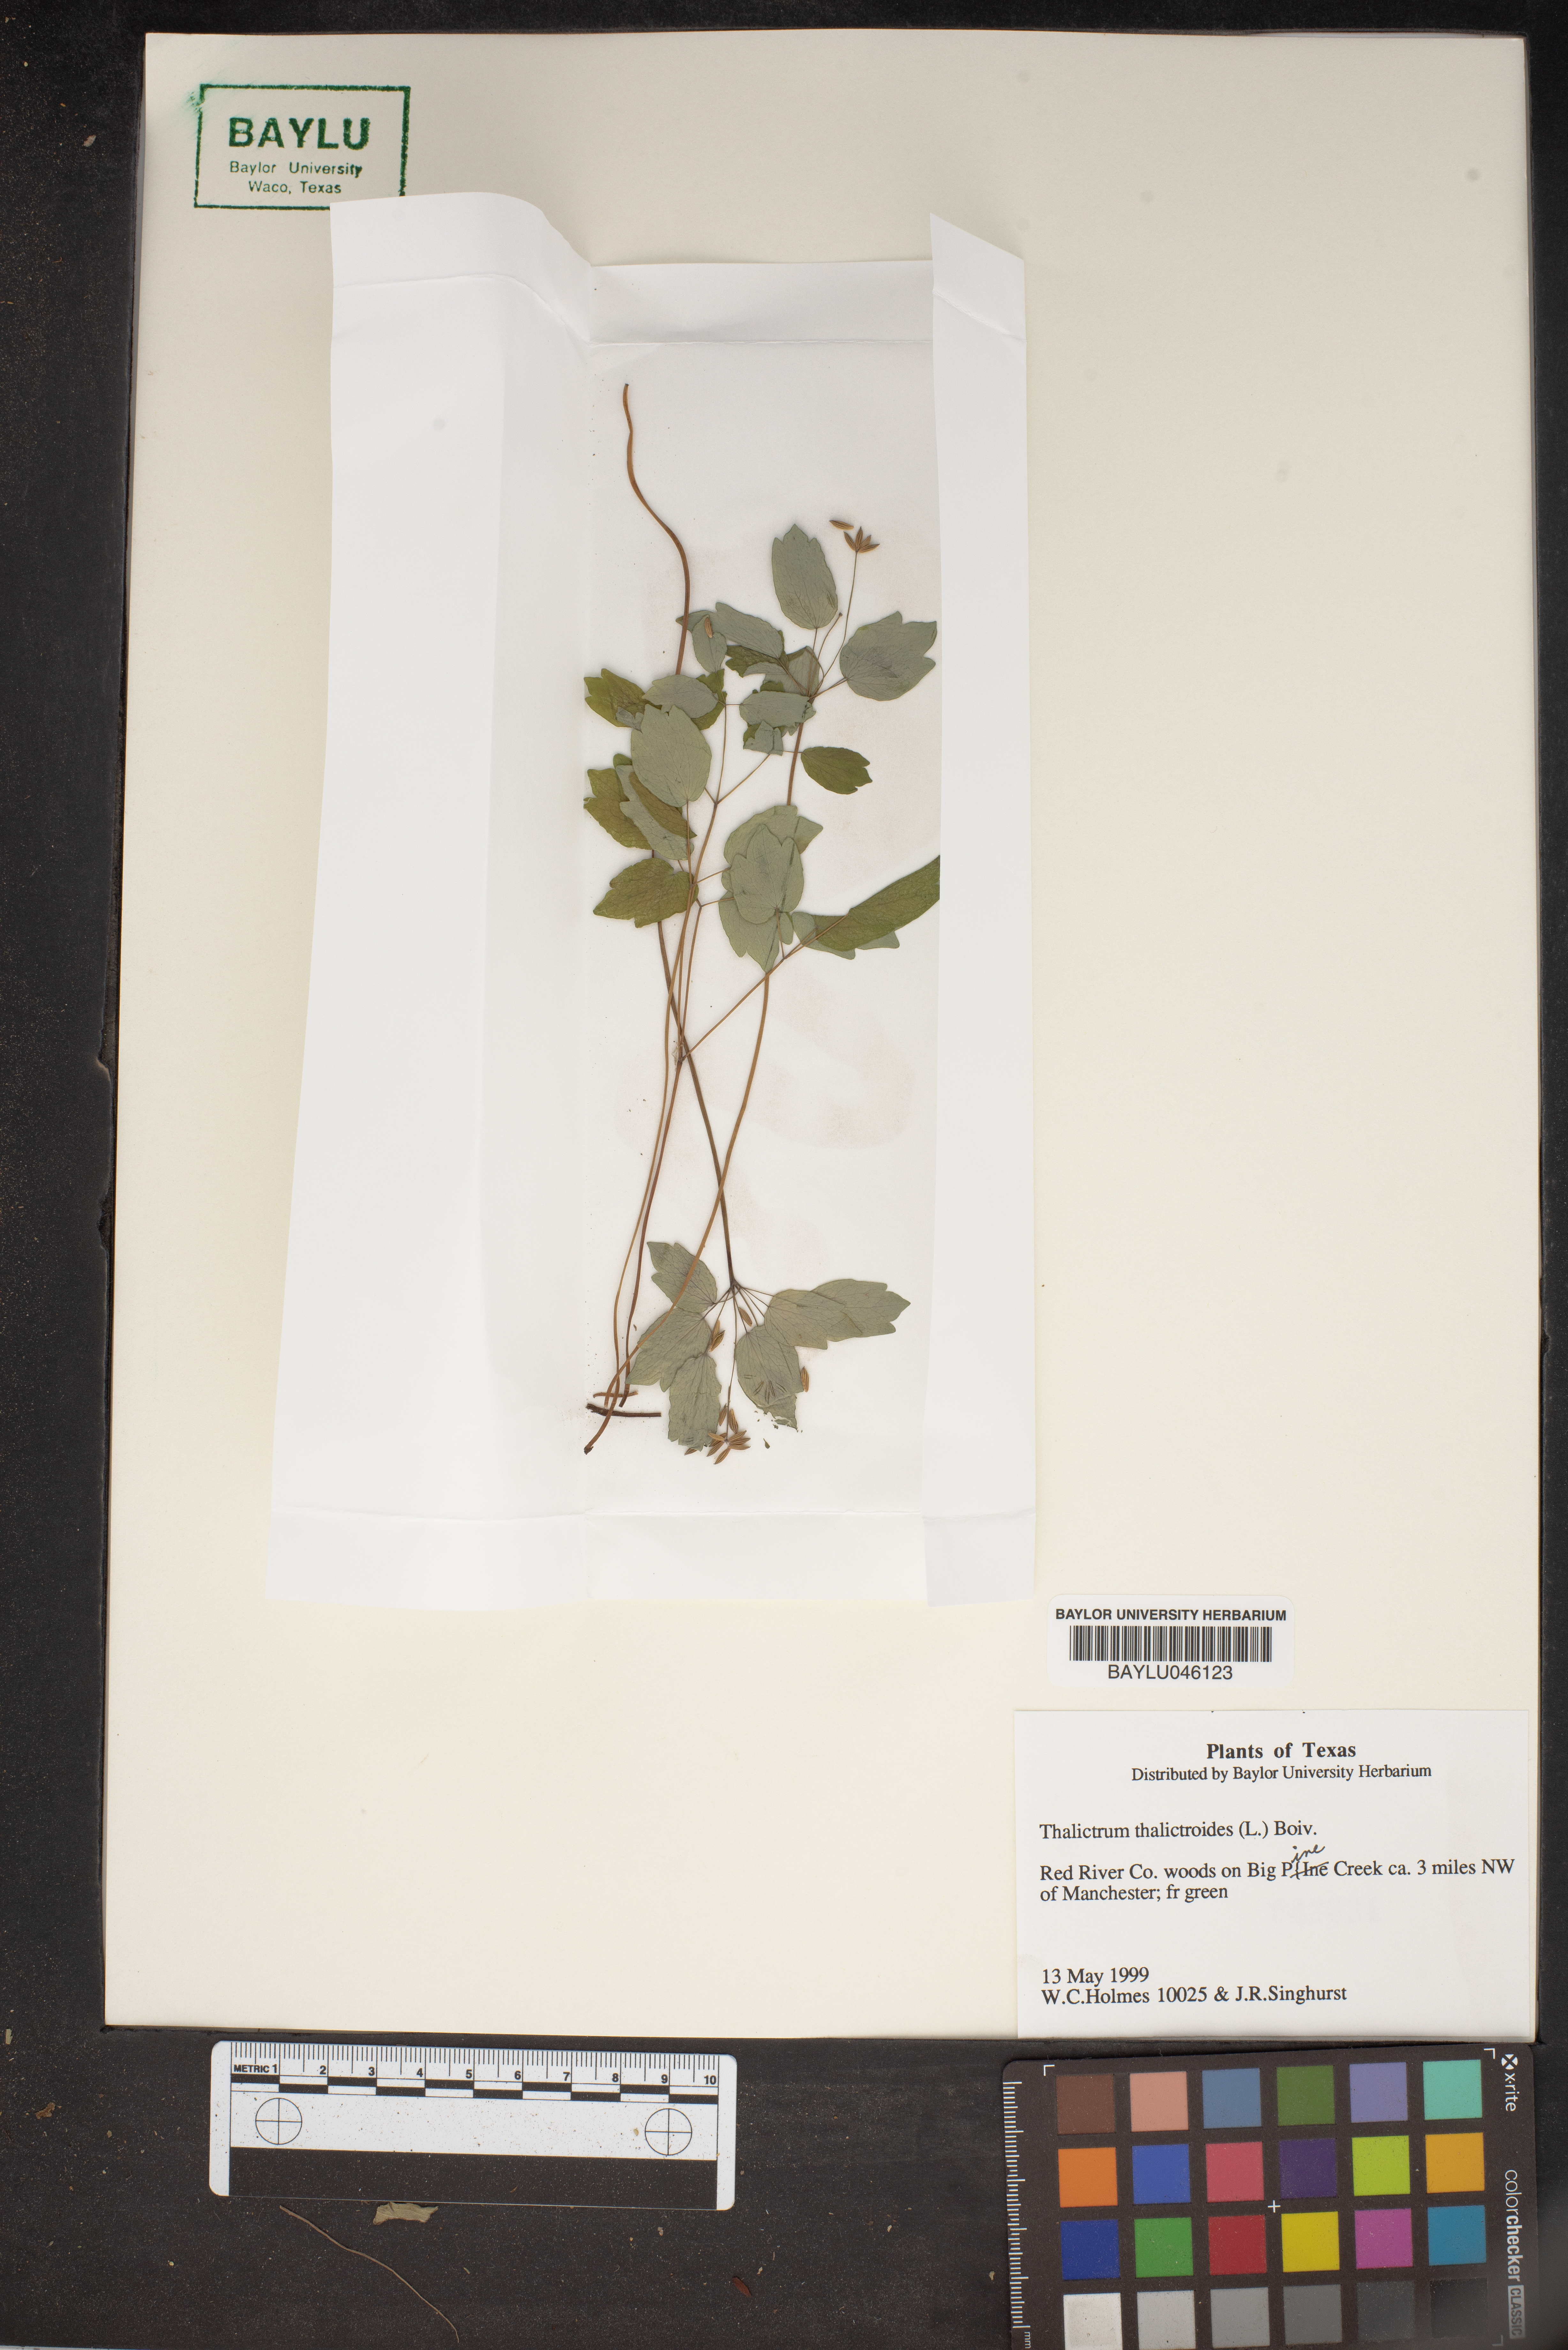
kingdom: Plantae
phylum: Tracheophyta
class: Magnoliopsida
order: Ranunculales
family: Ranunculaceae
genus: Thalictrum
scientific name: Thalictrum thalictroides
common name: Rue-anemone
